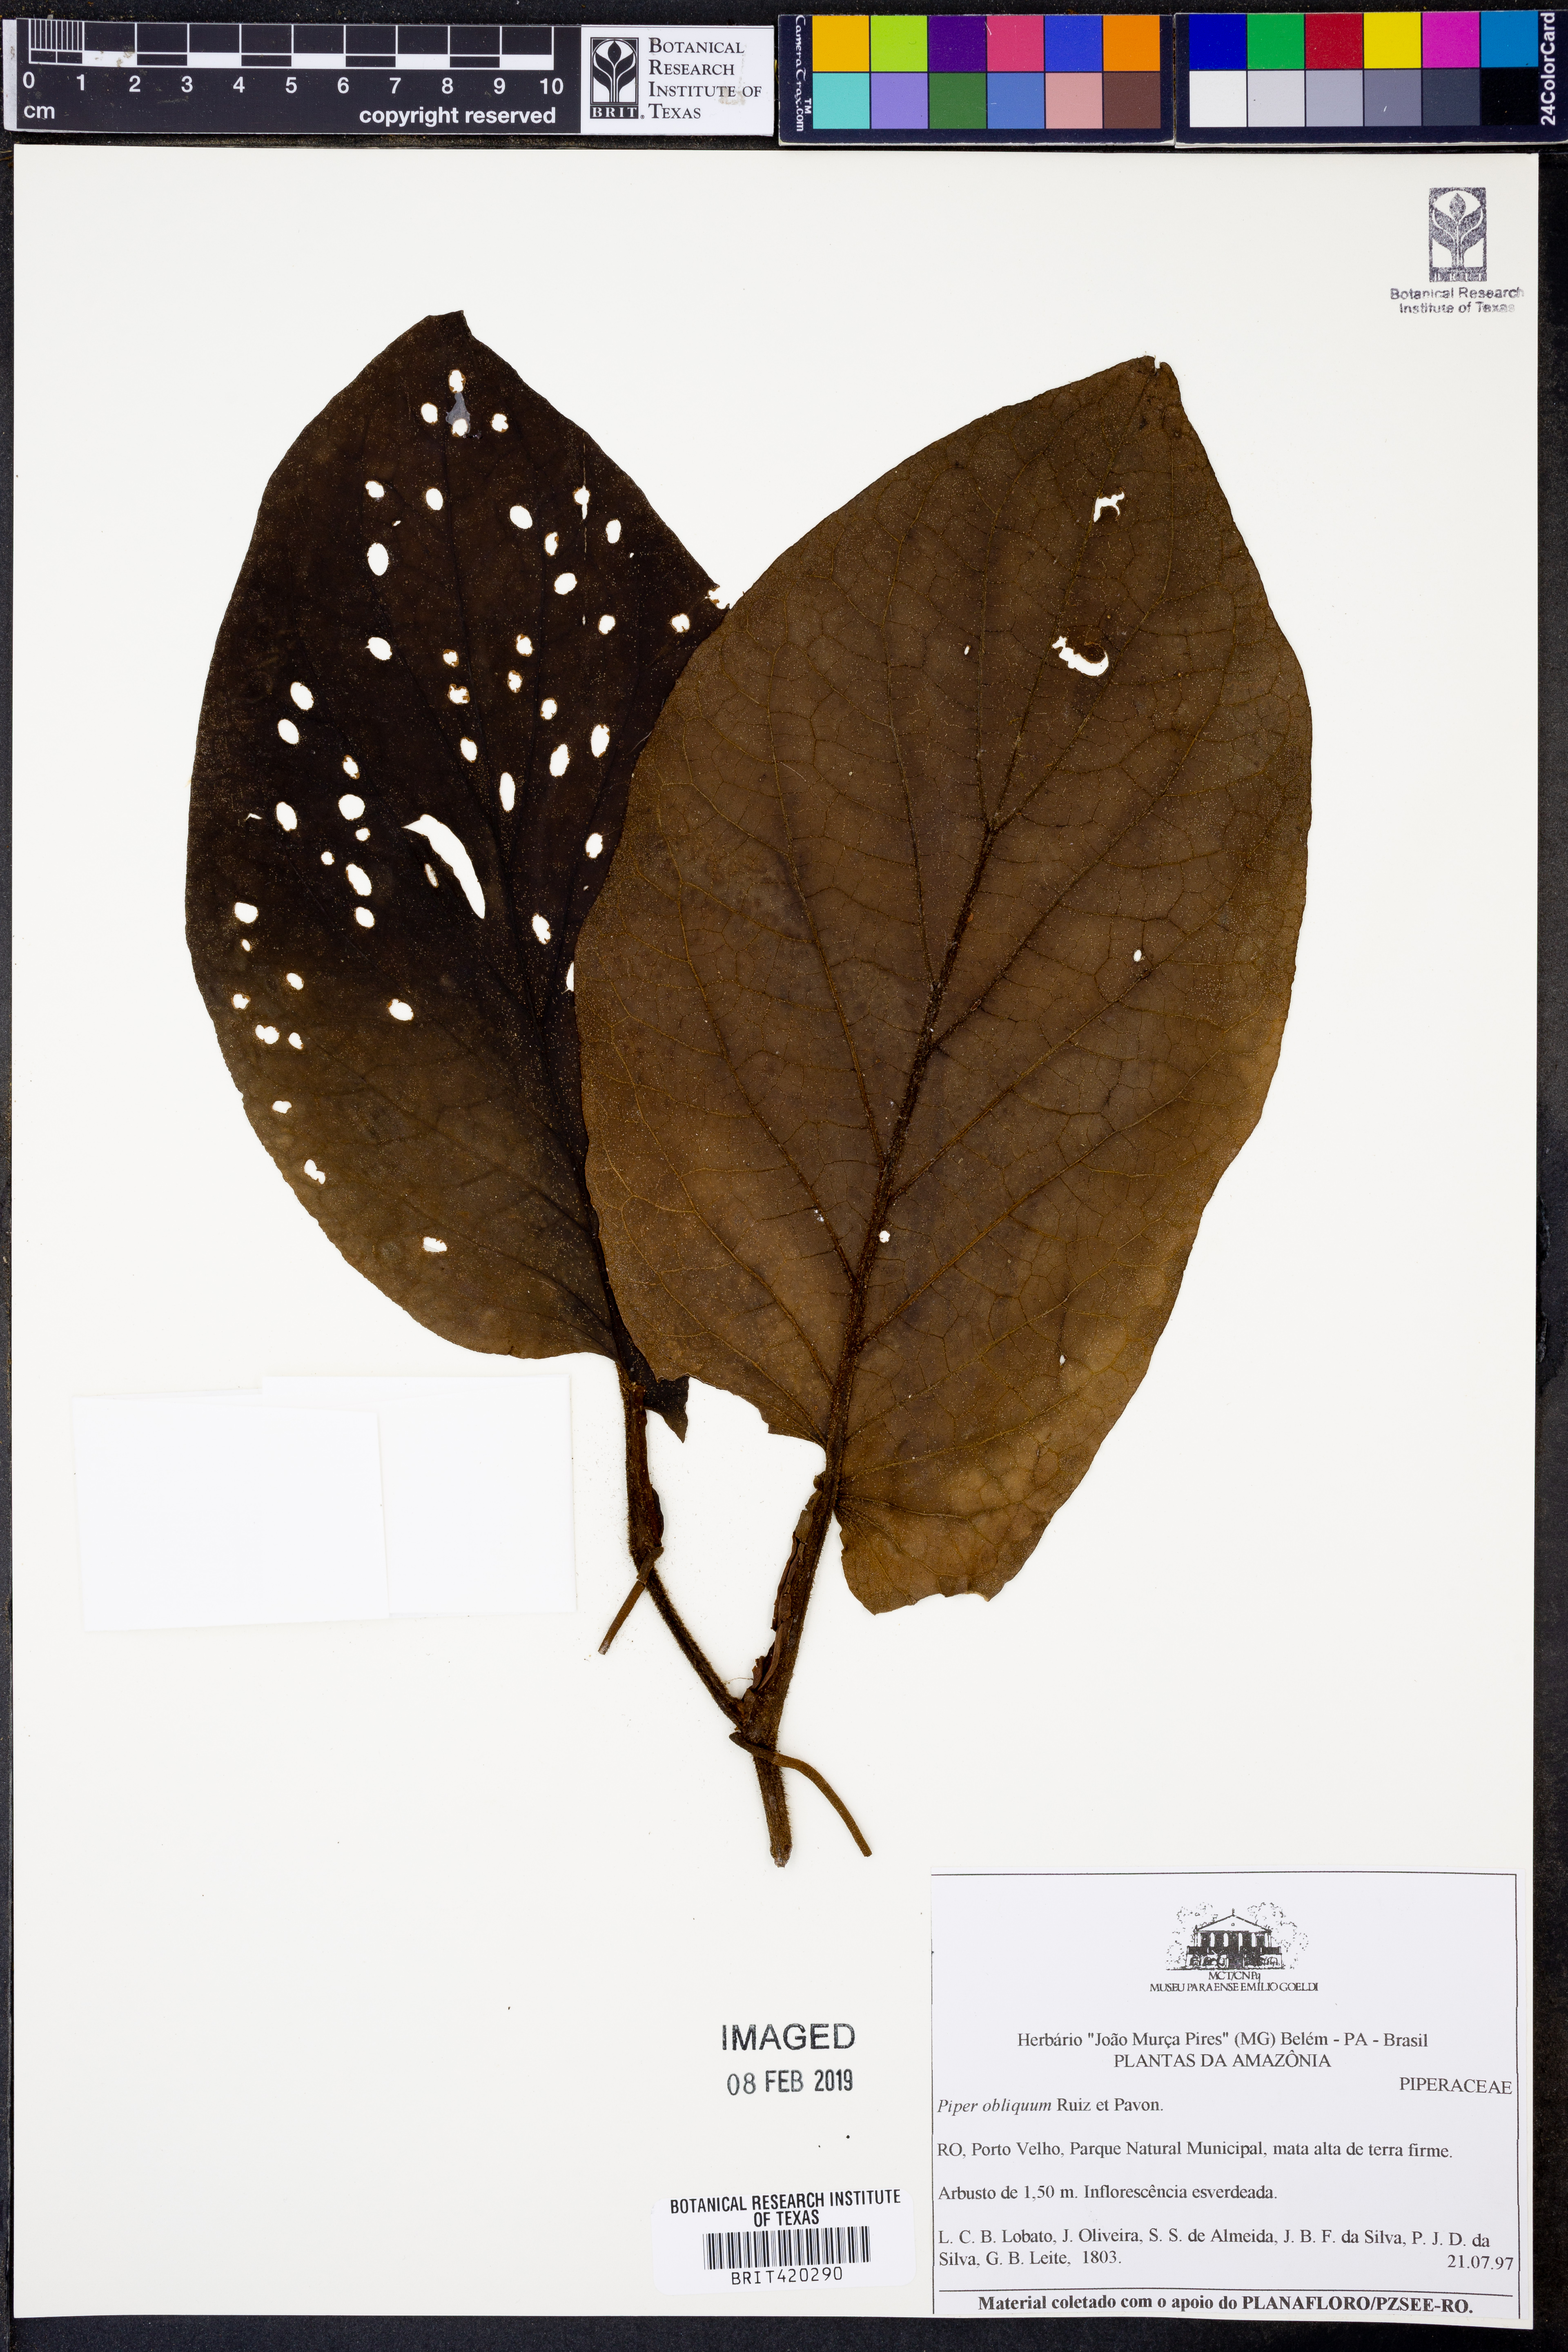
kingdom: Plantae
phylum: Tracheophyta
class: Magnoliopsida
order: Piperales
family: Piperaceae
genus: Piper
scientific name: Piper obliquum
